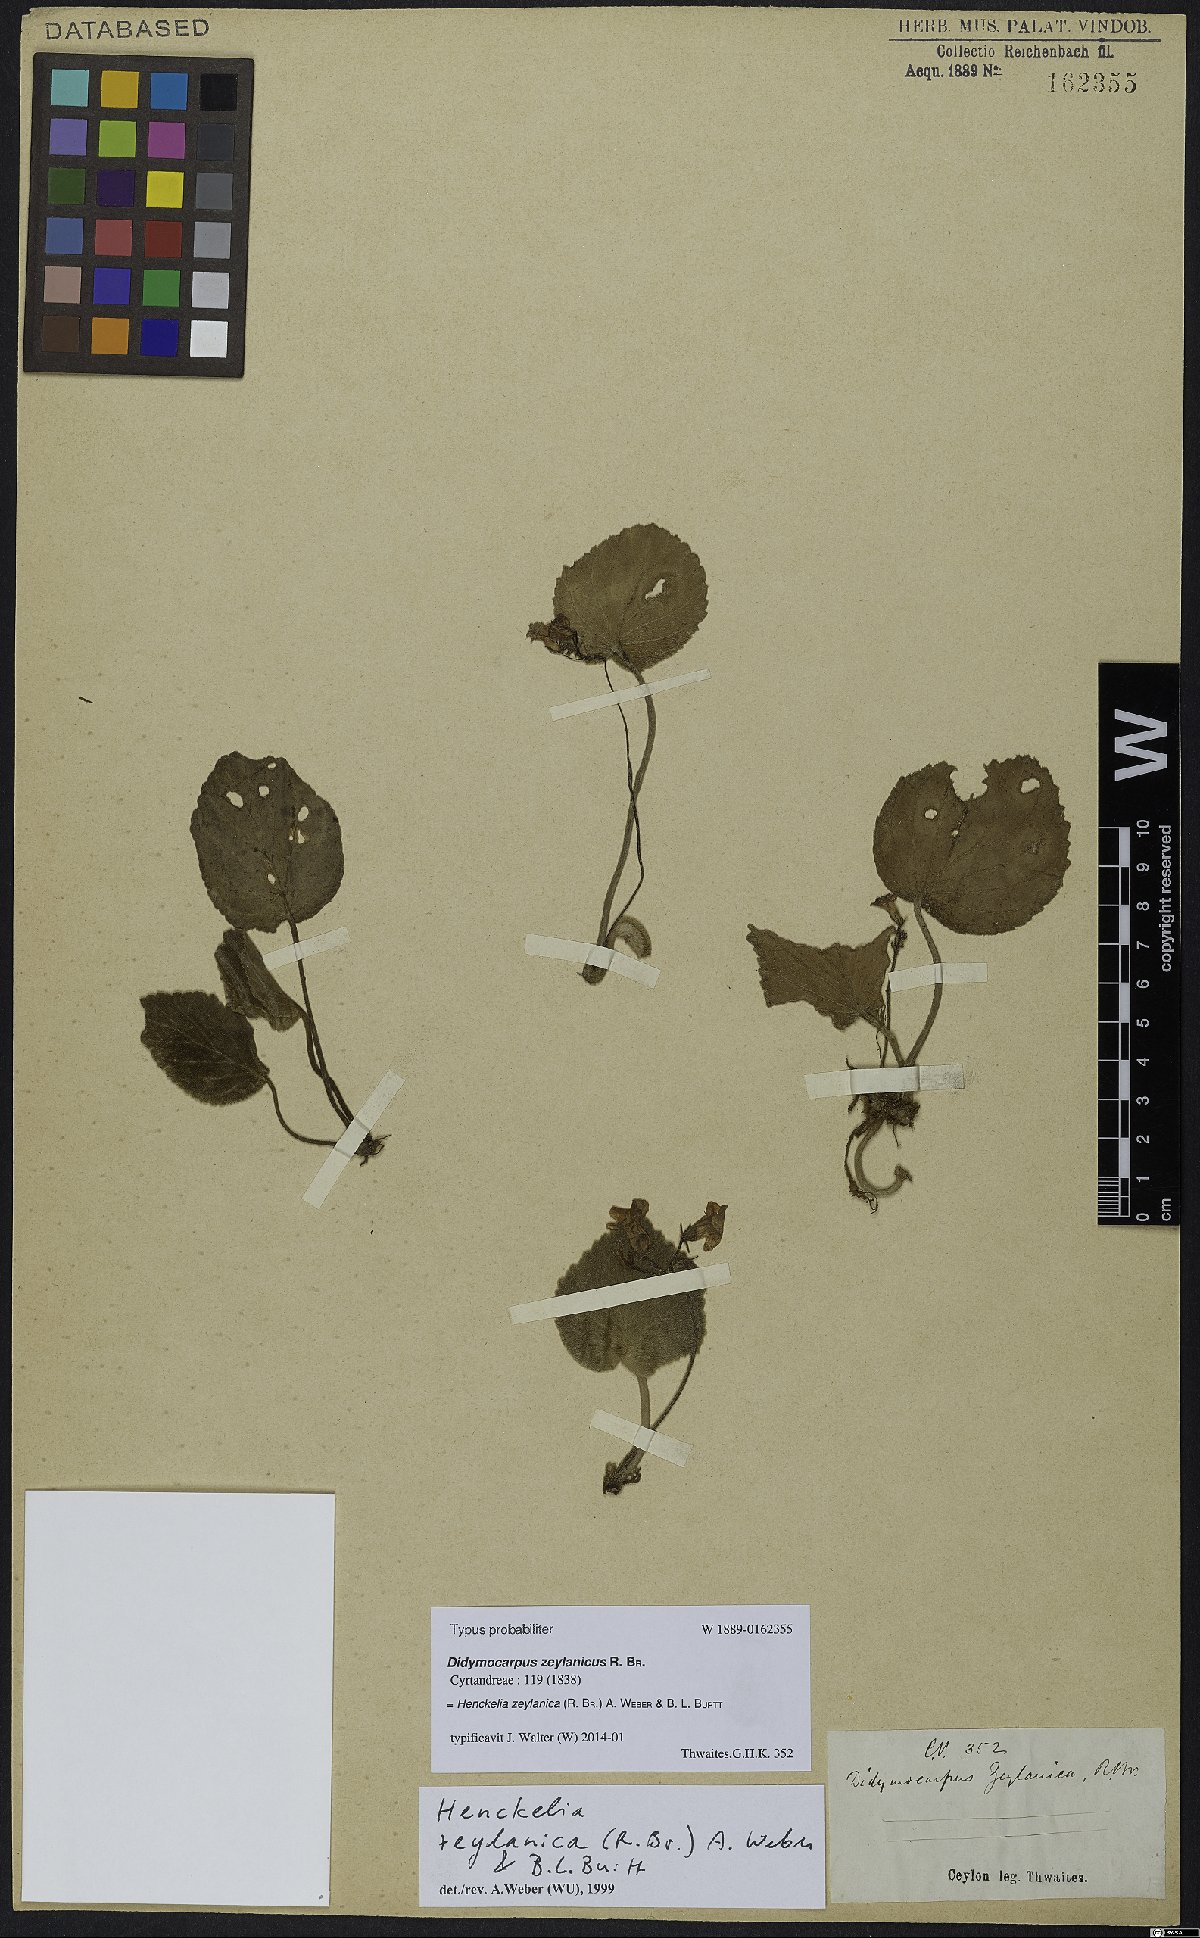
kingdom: Plantae
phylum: Tracheophyta
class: Magnoliopsida
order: Lamiales
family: Gesneriaceae
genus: Henckelia
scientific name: Henckelia zeylanica
